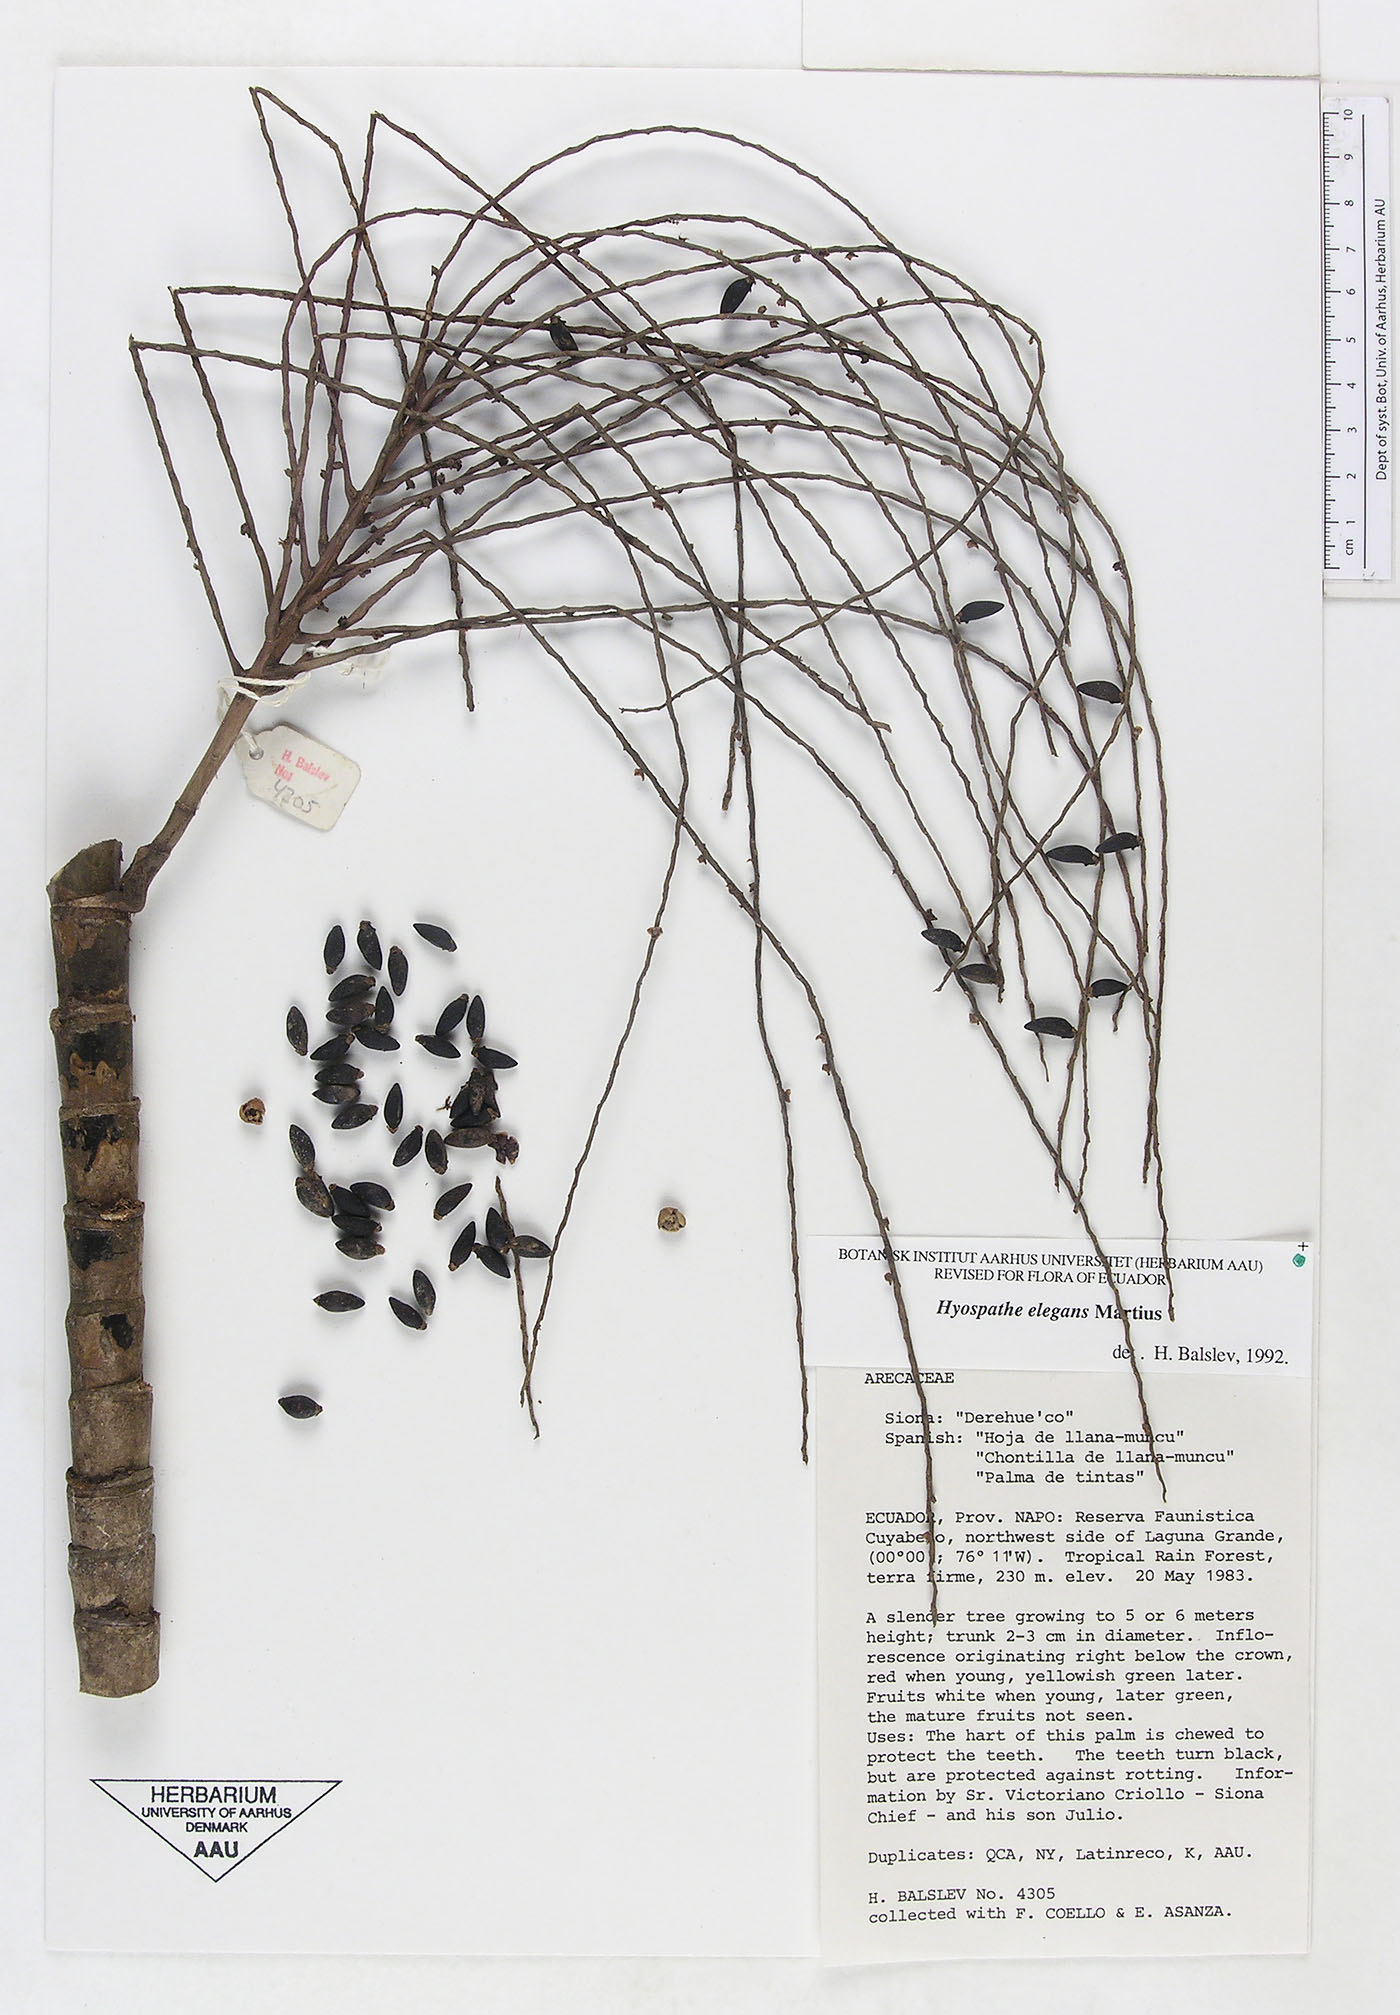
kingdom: Plantae
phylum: Tracheophyta
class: Liliopsida
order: Arecales
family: Arecaceae
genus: Hyospathe
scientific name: Hyospathe elegans
